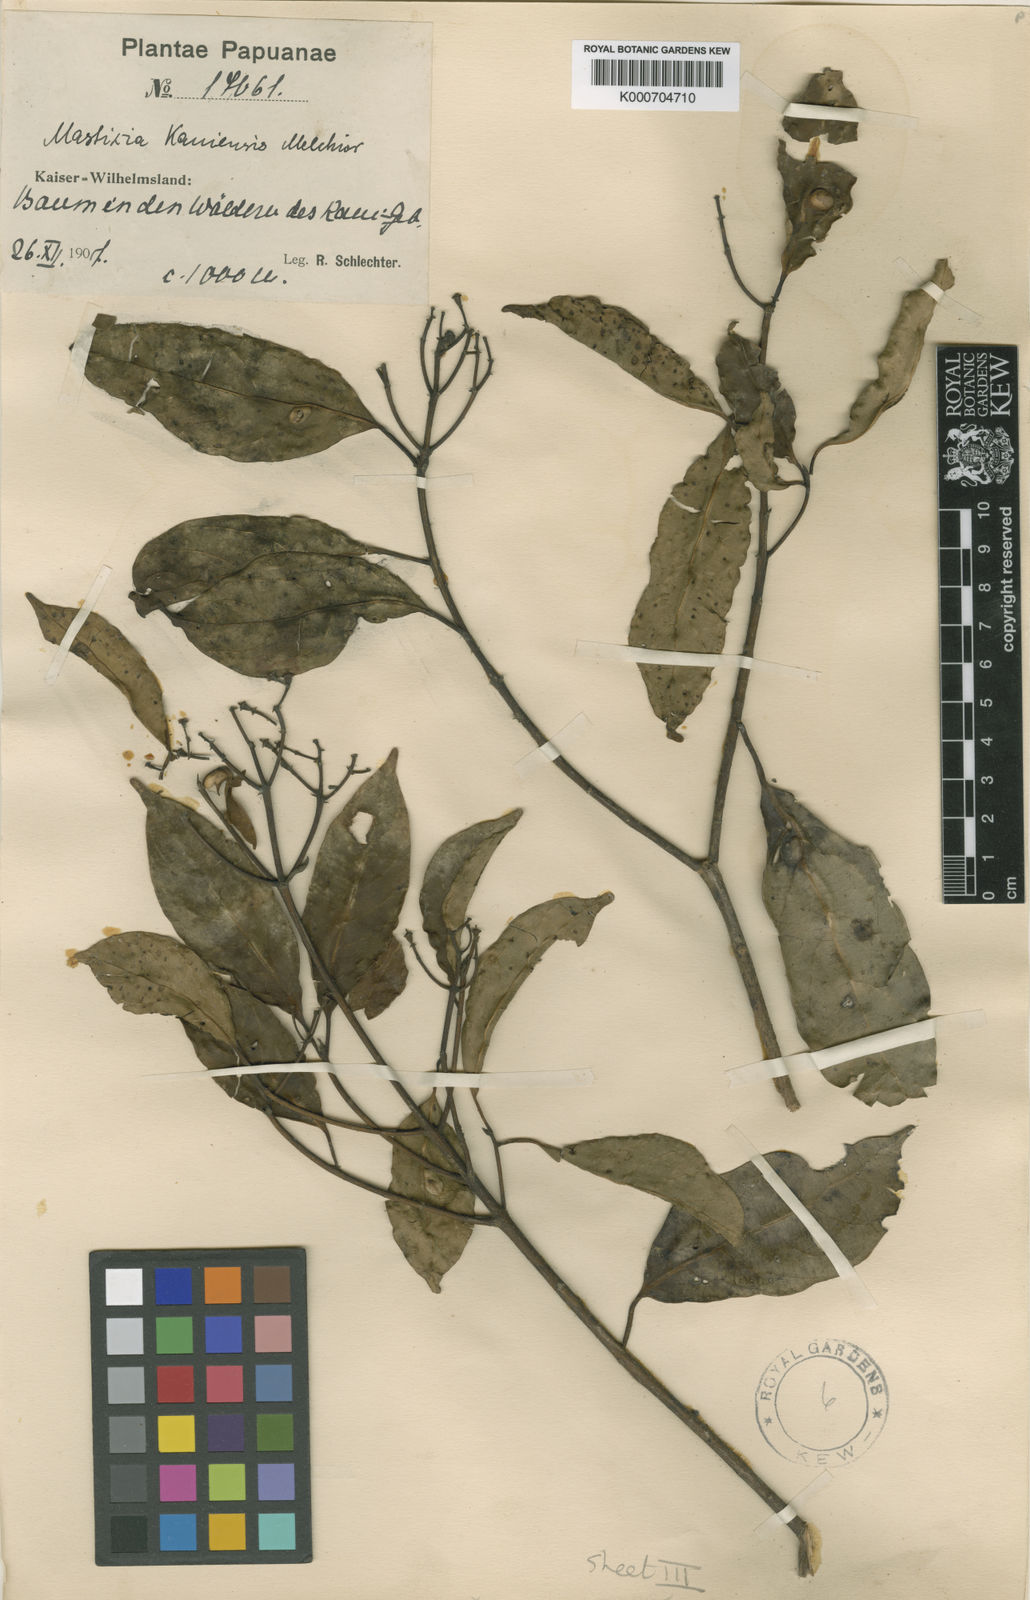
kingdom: Plantae
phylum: Tracheophyta
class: Magnoliopsida
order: Cornales
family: Nyssaceae
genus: Mastixia
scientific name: Mastixia kaniensis
